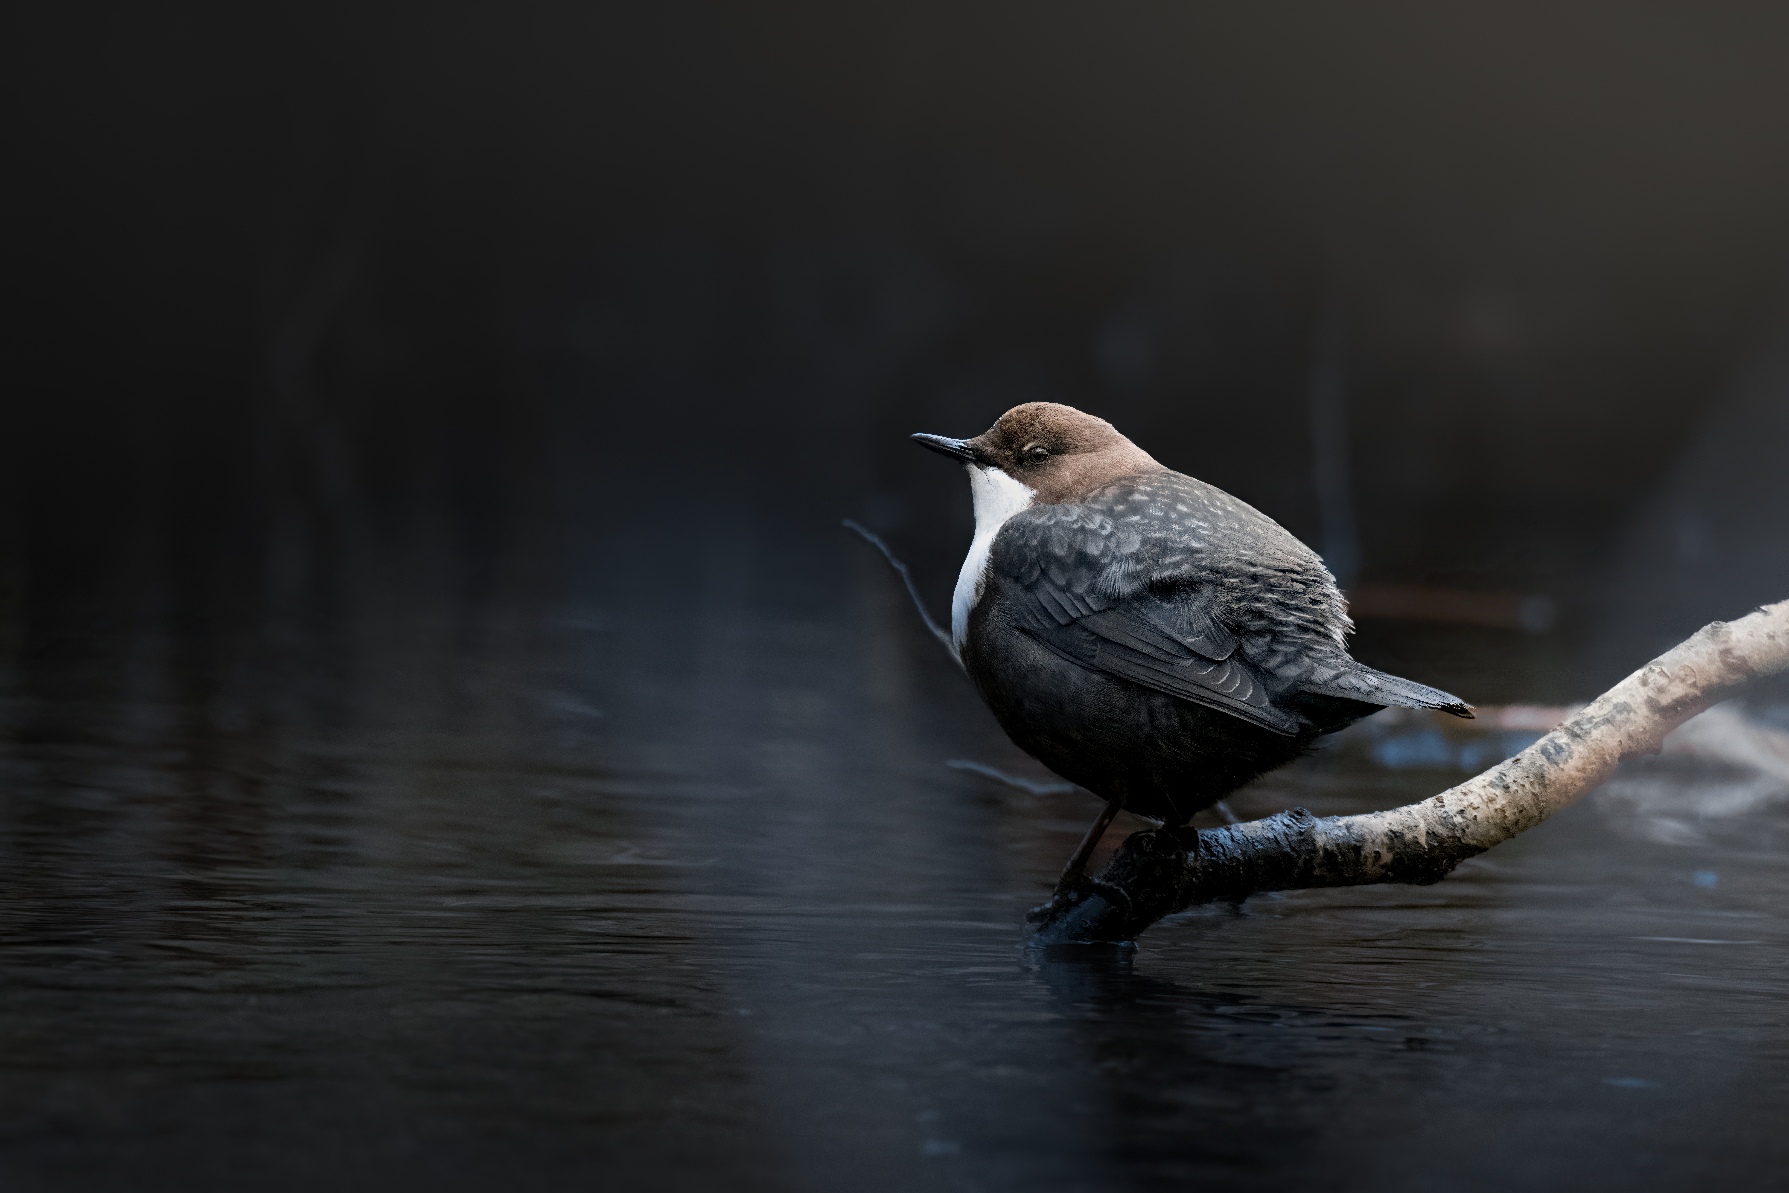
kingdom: Animalia
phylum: Chordata
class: Aves
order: Passeriformes
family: Cinclidae
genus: Cinclus
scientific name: Cinclus cinclus
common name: Vandstær
